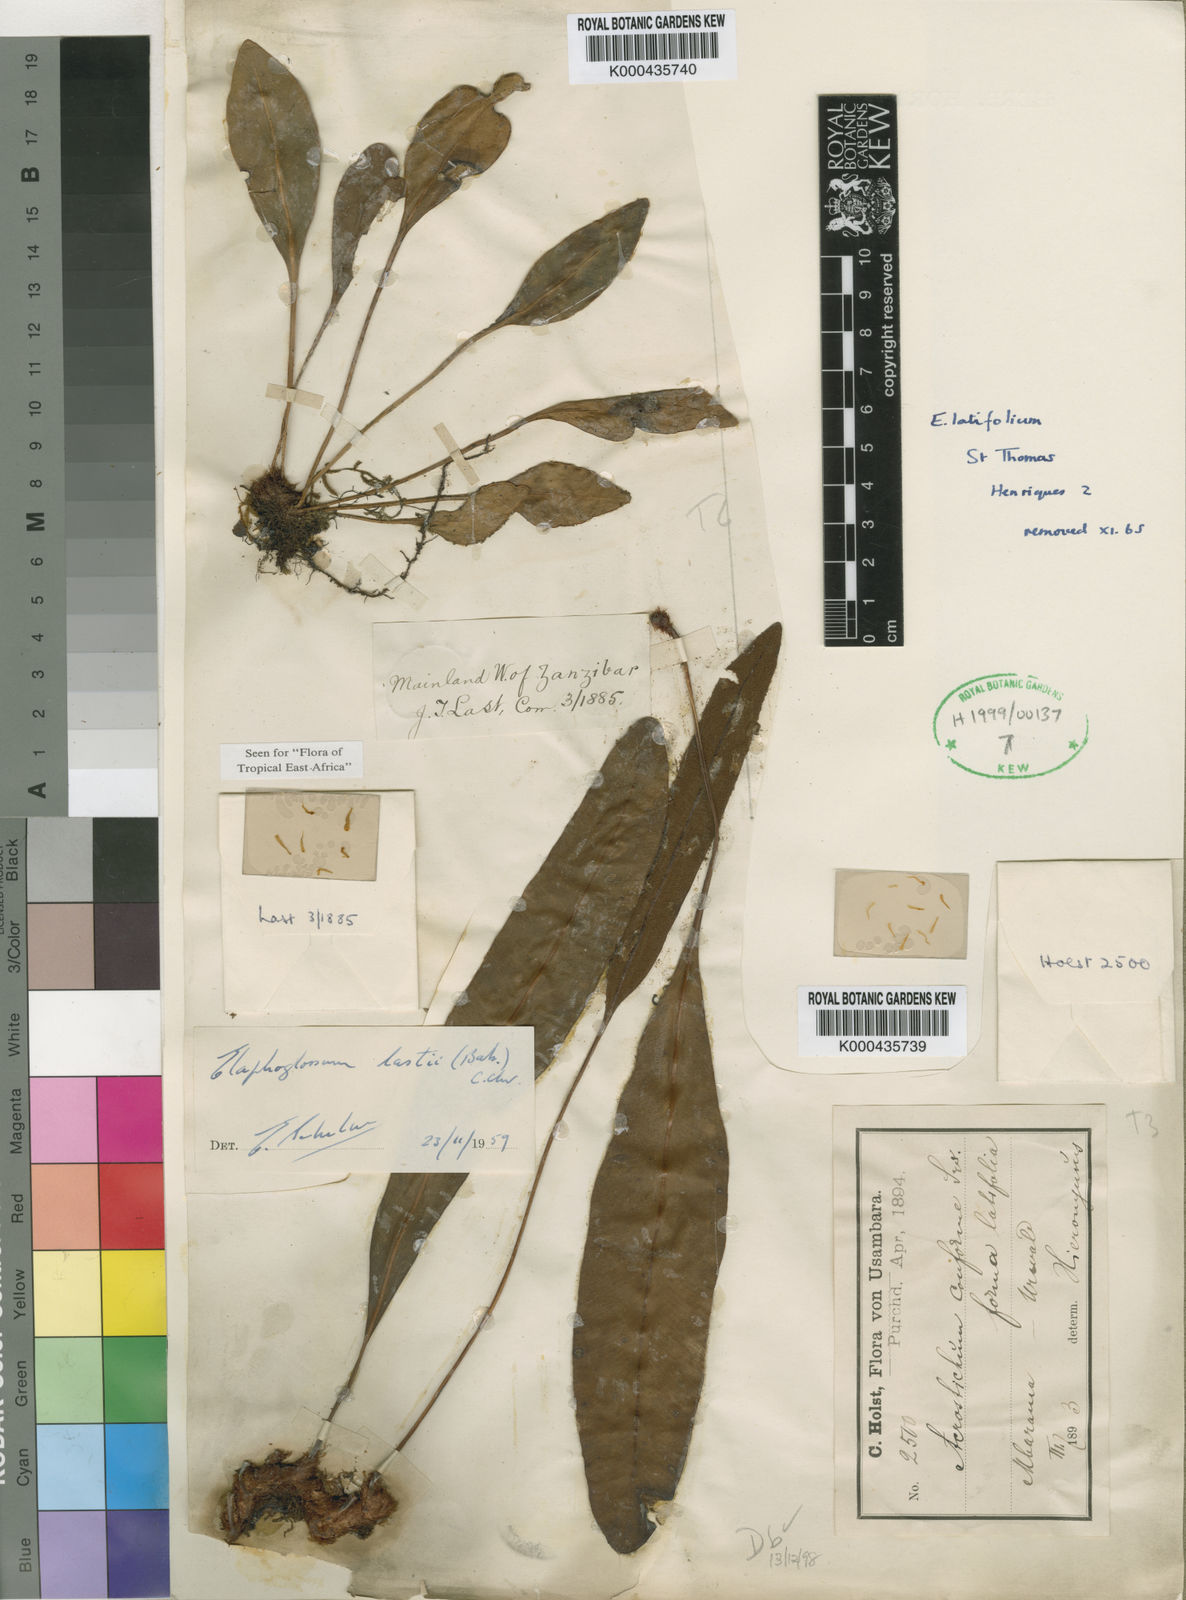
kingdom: Plantae
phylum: Tracheophyta
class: Polypodiopsida
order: Polypodiales
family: Dryopteridaceae
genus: Elaphoglossum
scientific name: Elaphoglossum lastii
